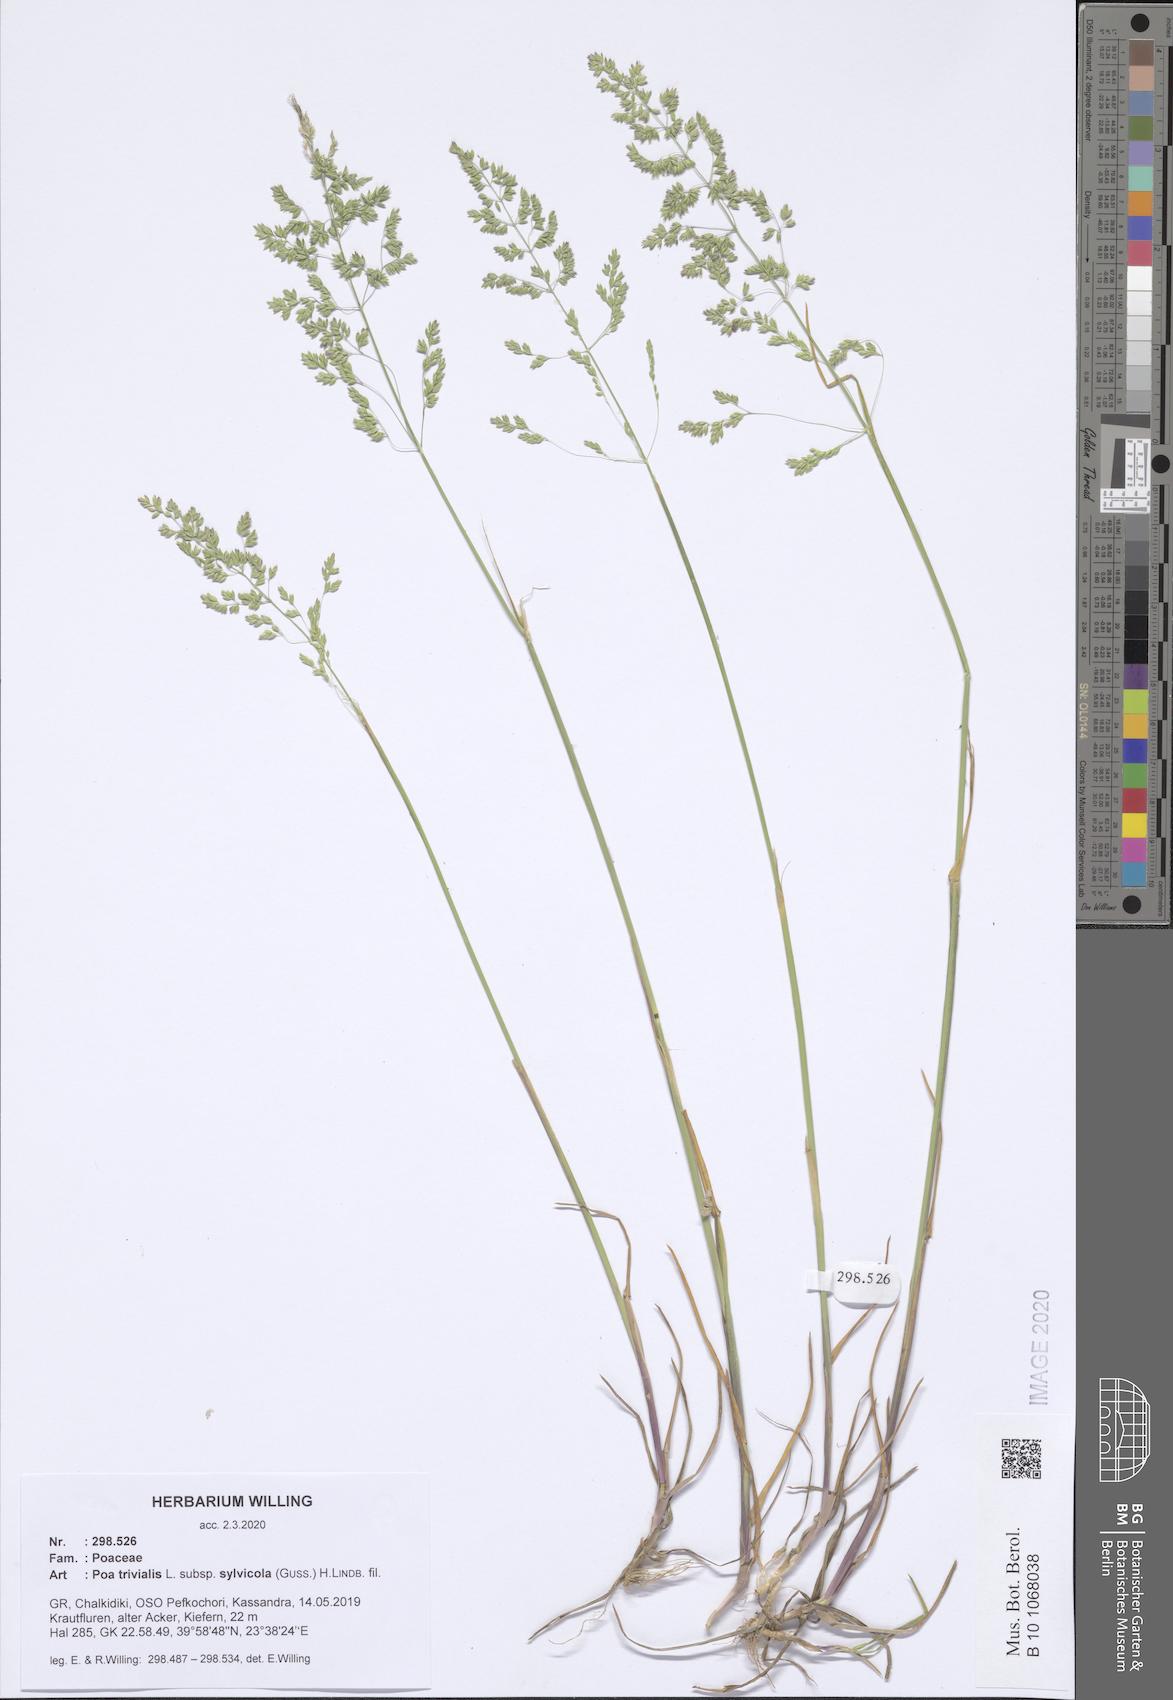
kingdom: Plantae
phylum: Tracheophyta
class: Liliopsida
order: Poales
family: Poaceae
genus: Poa
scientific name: Poa trivialis
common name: Rough bluegrass
